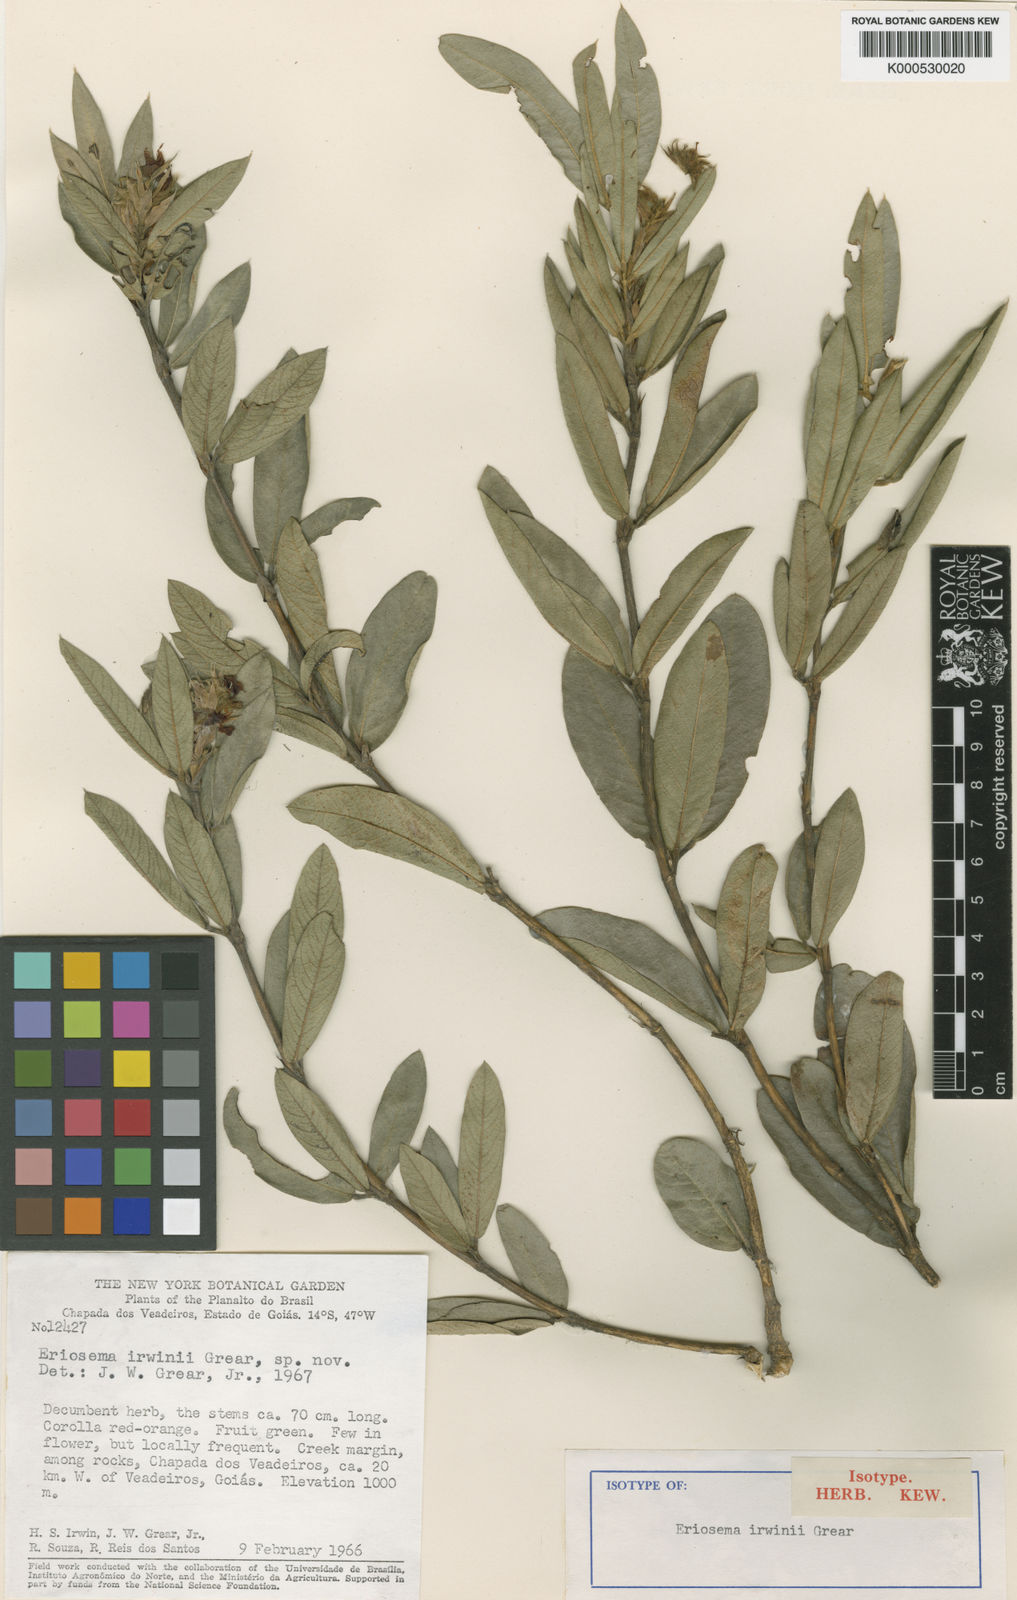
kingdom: Plantae
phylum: Tracheophyta
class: Magnoliopsida
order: Fabales
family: Fabaceae
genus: Eriosema
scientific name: Eriosema irwinii
